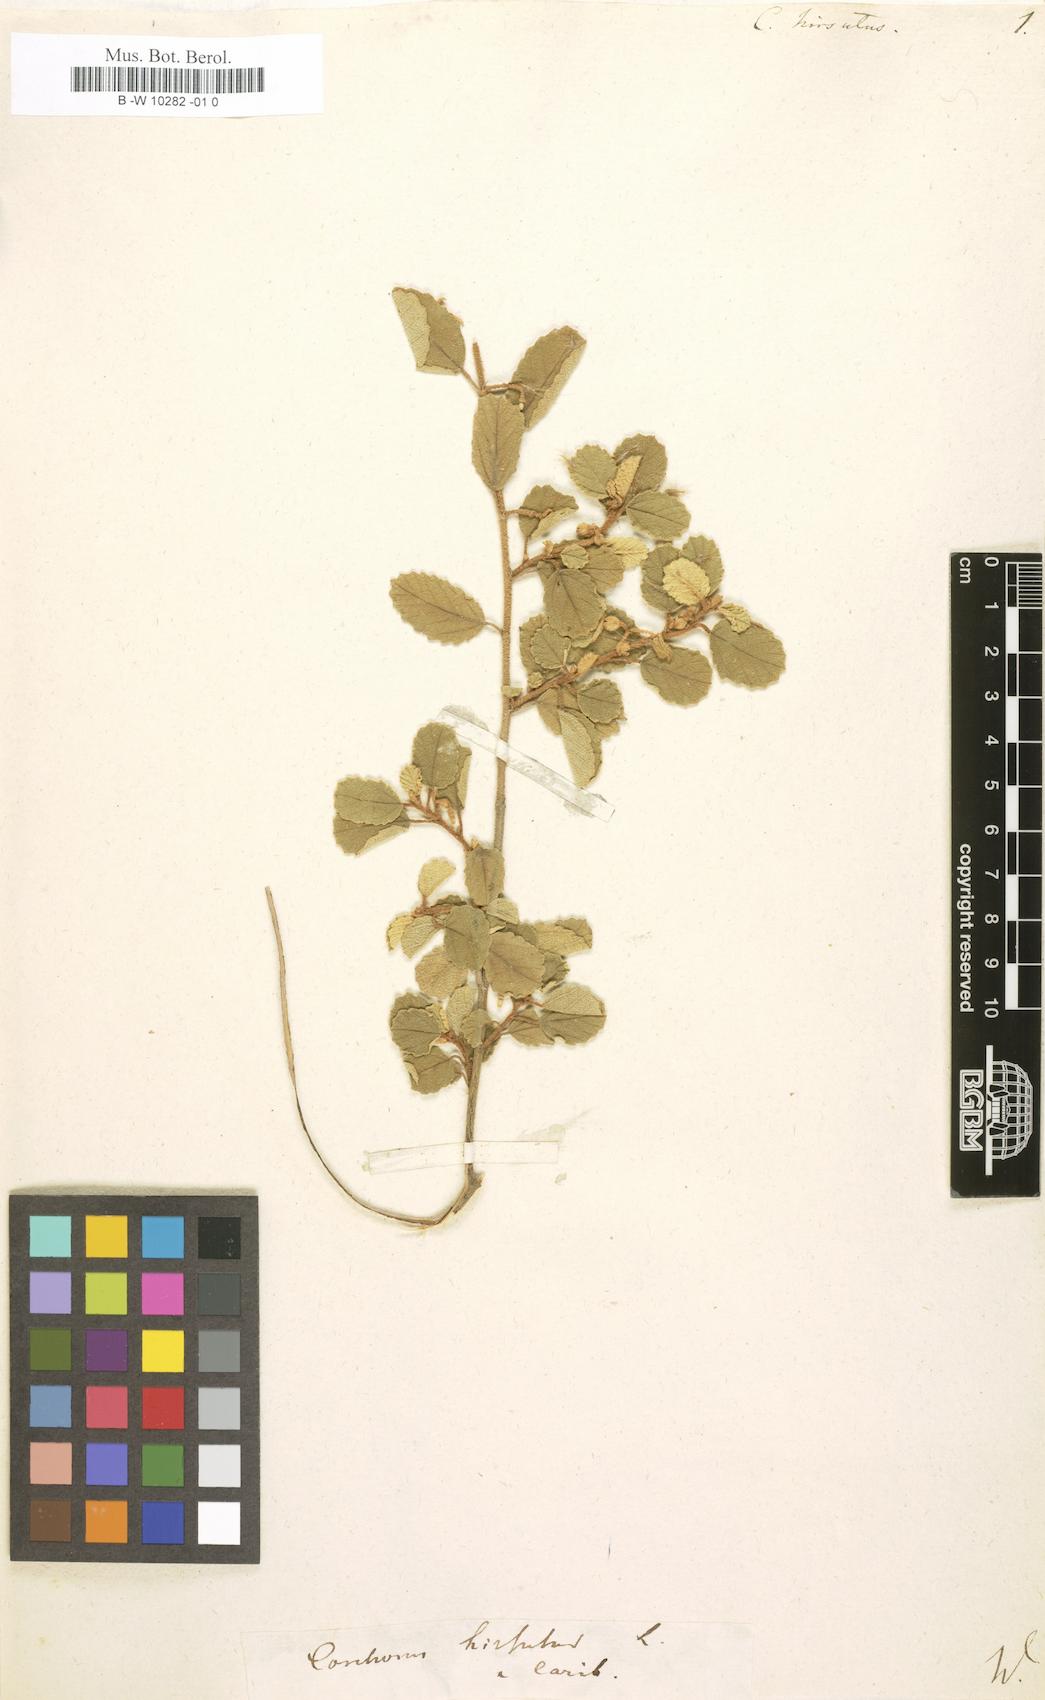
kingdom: Plantae
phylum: Tracheophyta
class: Magnoliopsida
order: Malvales
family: Malvaceae
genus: Corchorus
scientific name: Corchorus hirsutus
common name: Jackswitch
